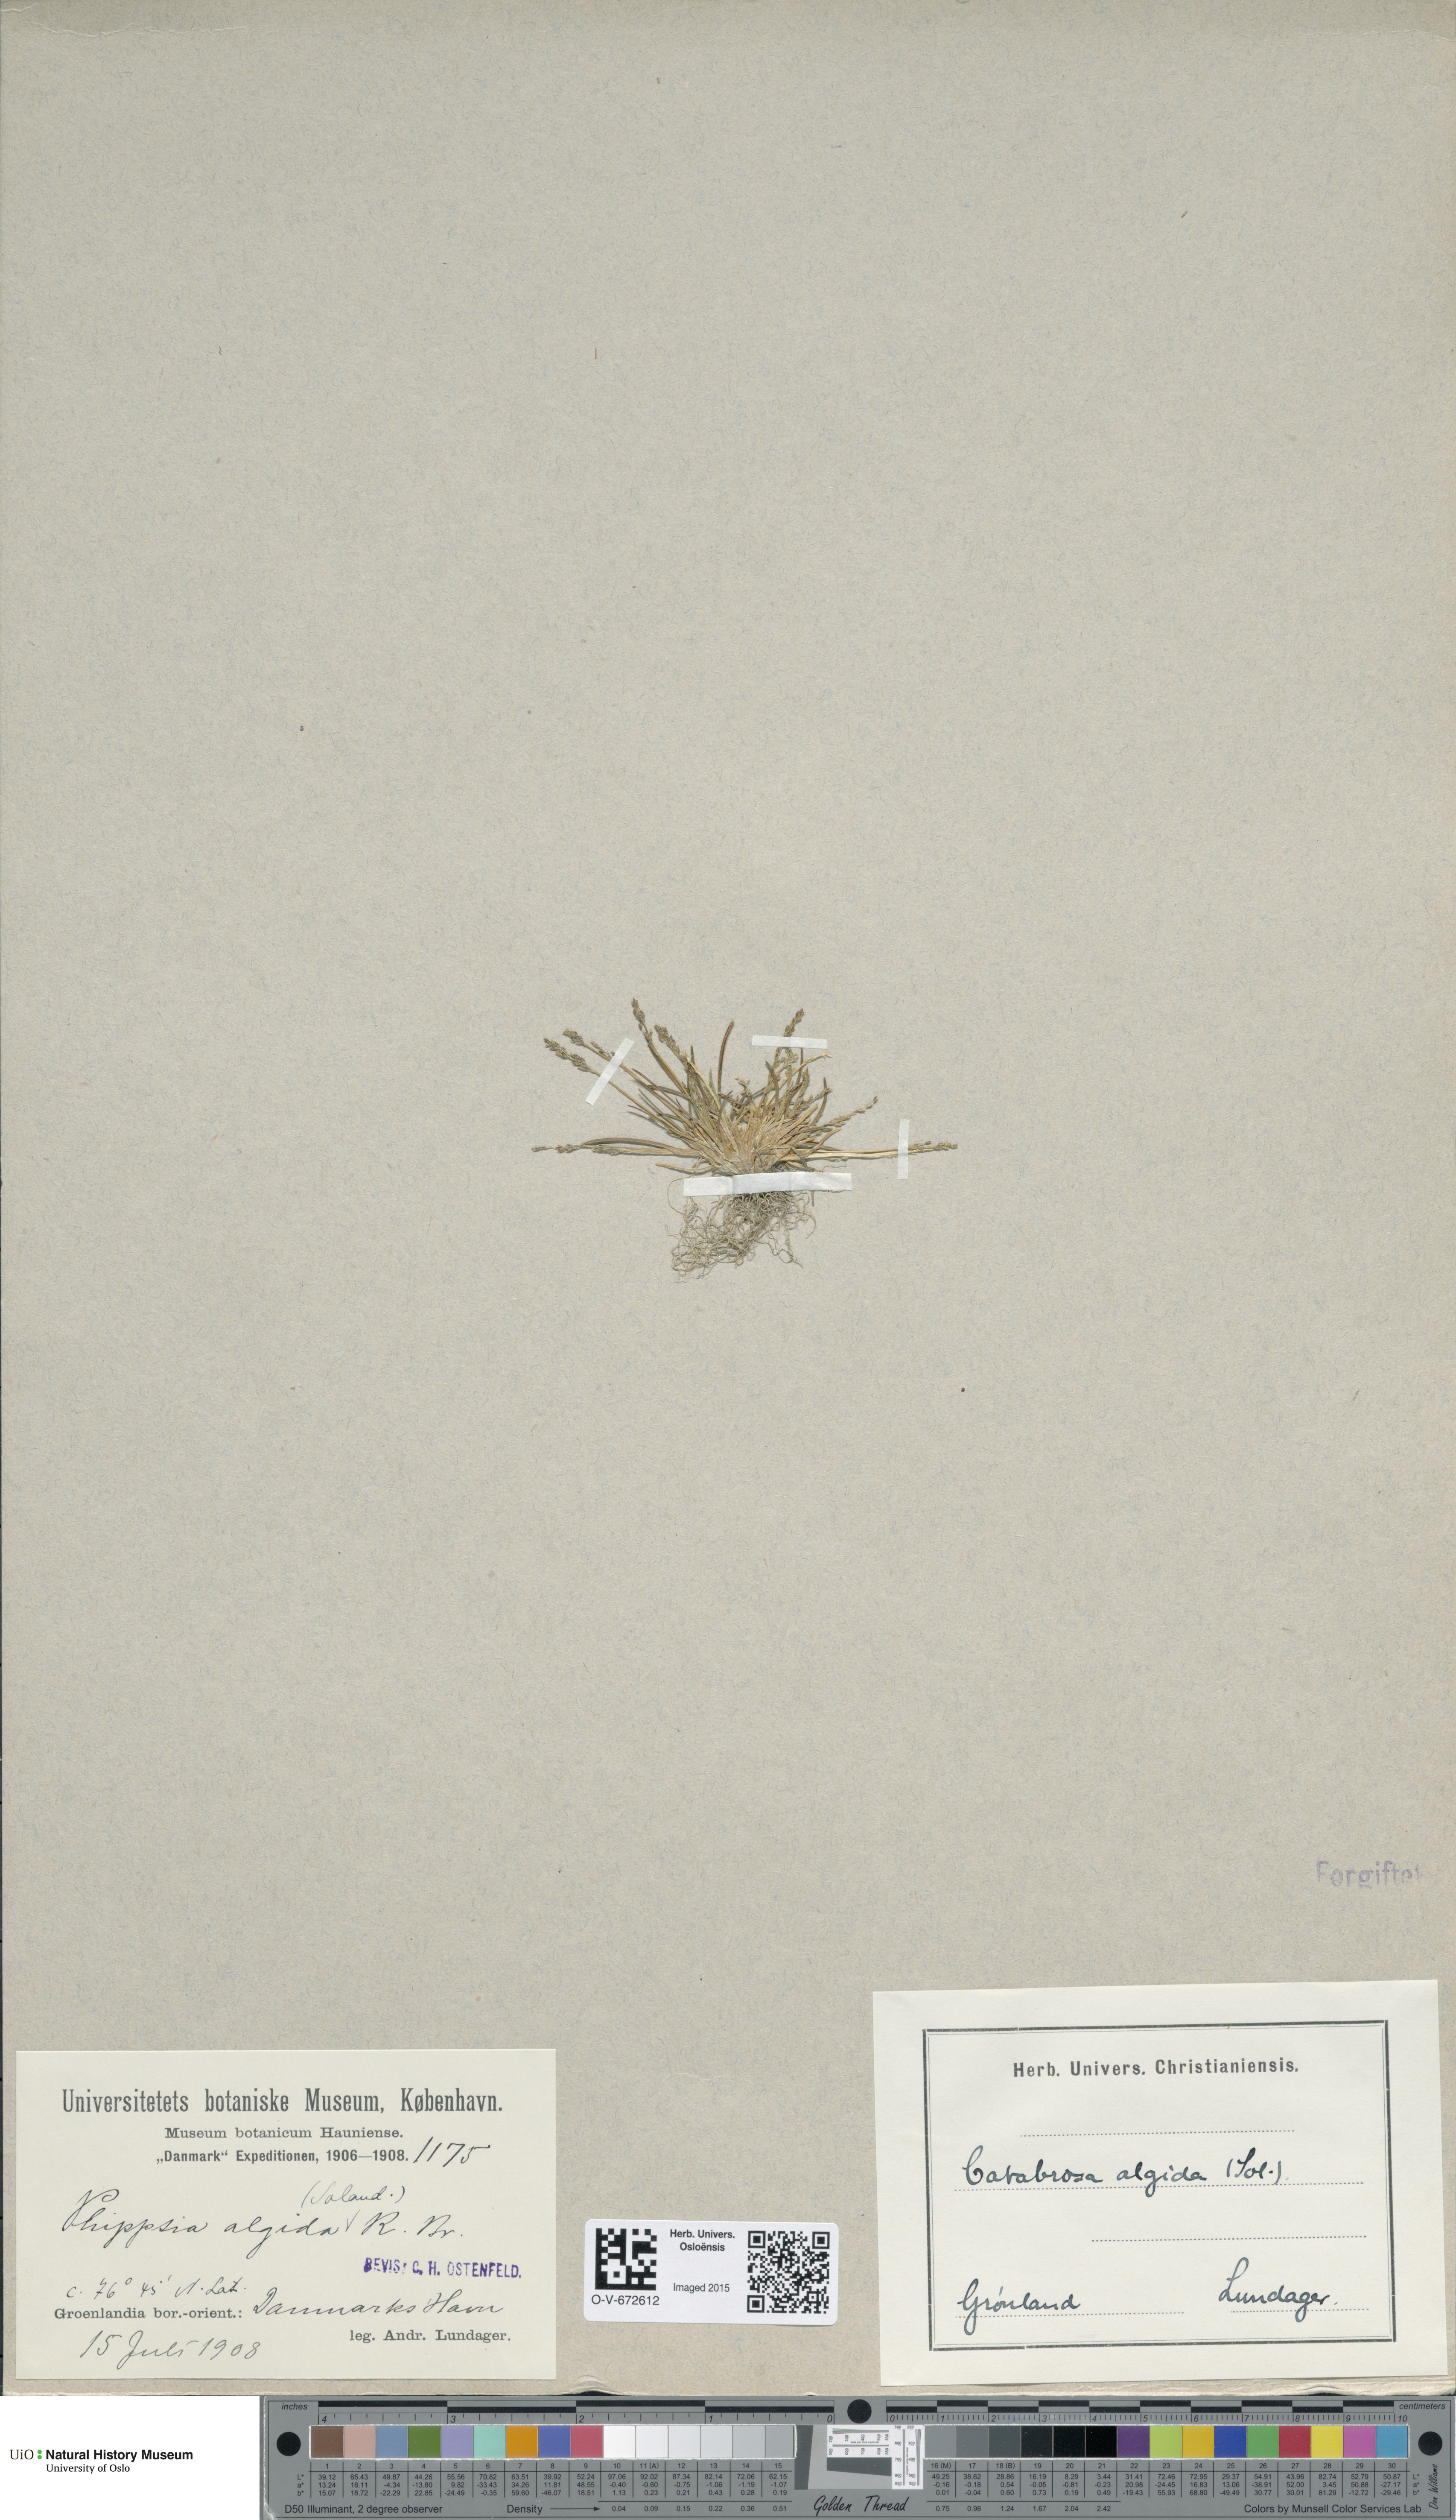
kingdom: Plantae
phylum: Tracheophyta
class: Magnoliopsida
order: Brassicales
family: Brassicaceae
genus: Cardamine
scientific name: Cardamine hirsuta
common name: Hairy bittercress
